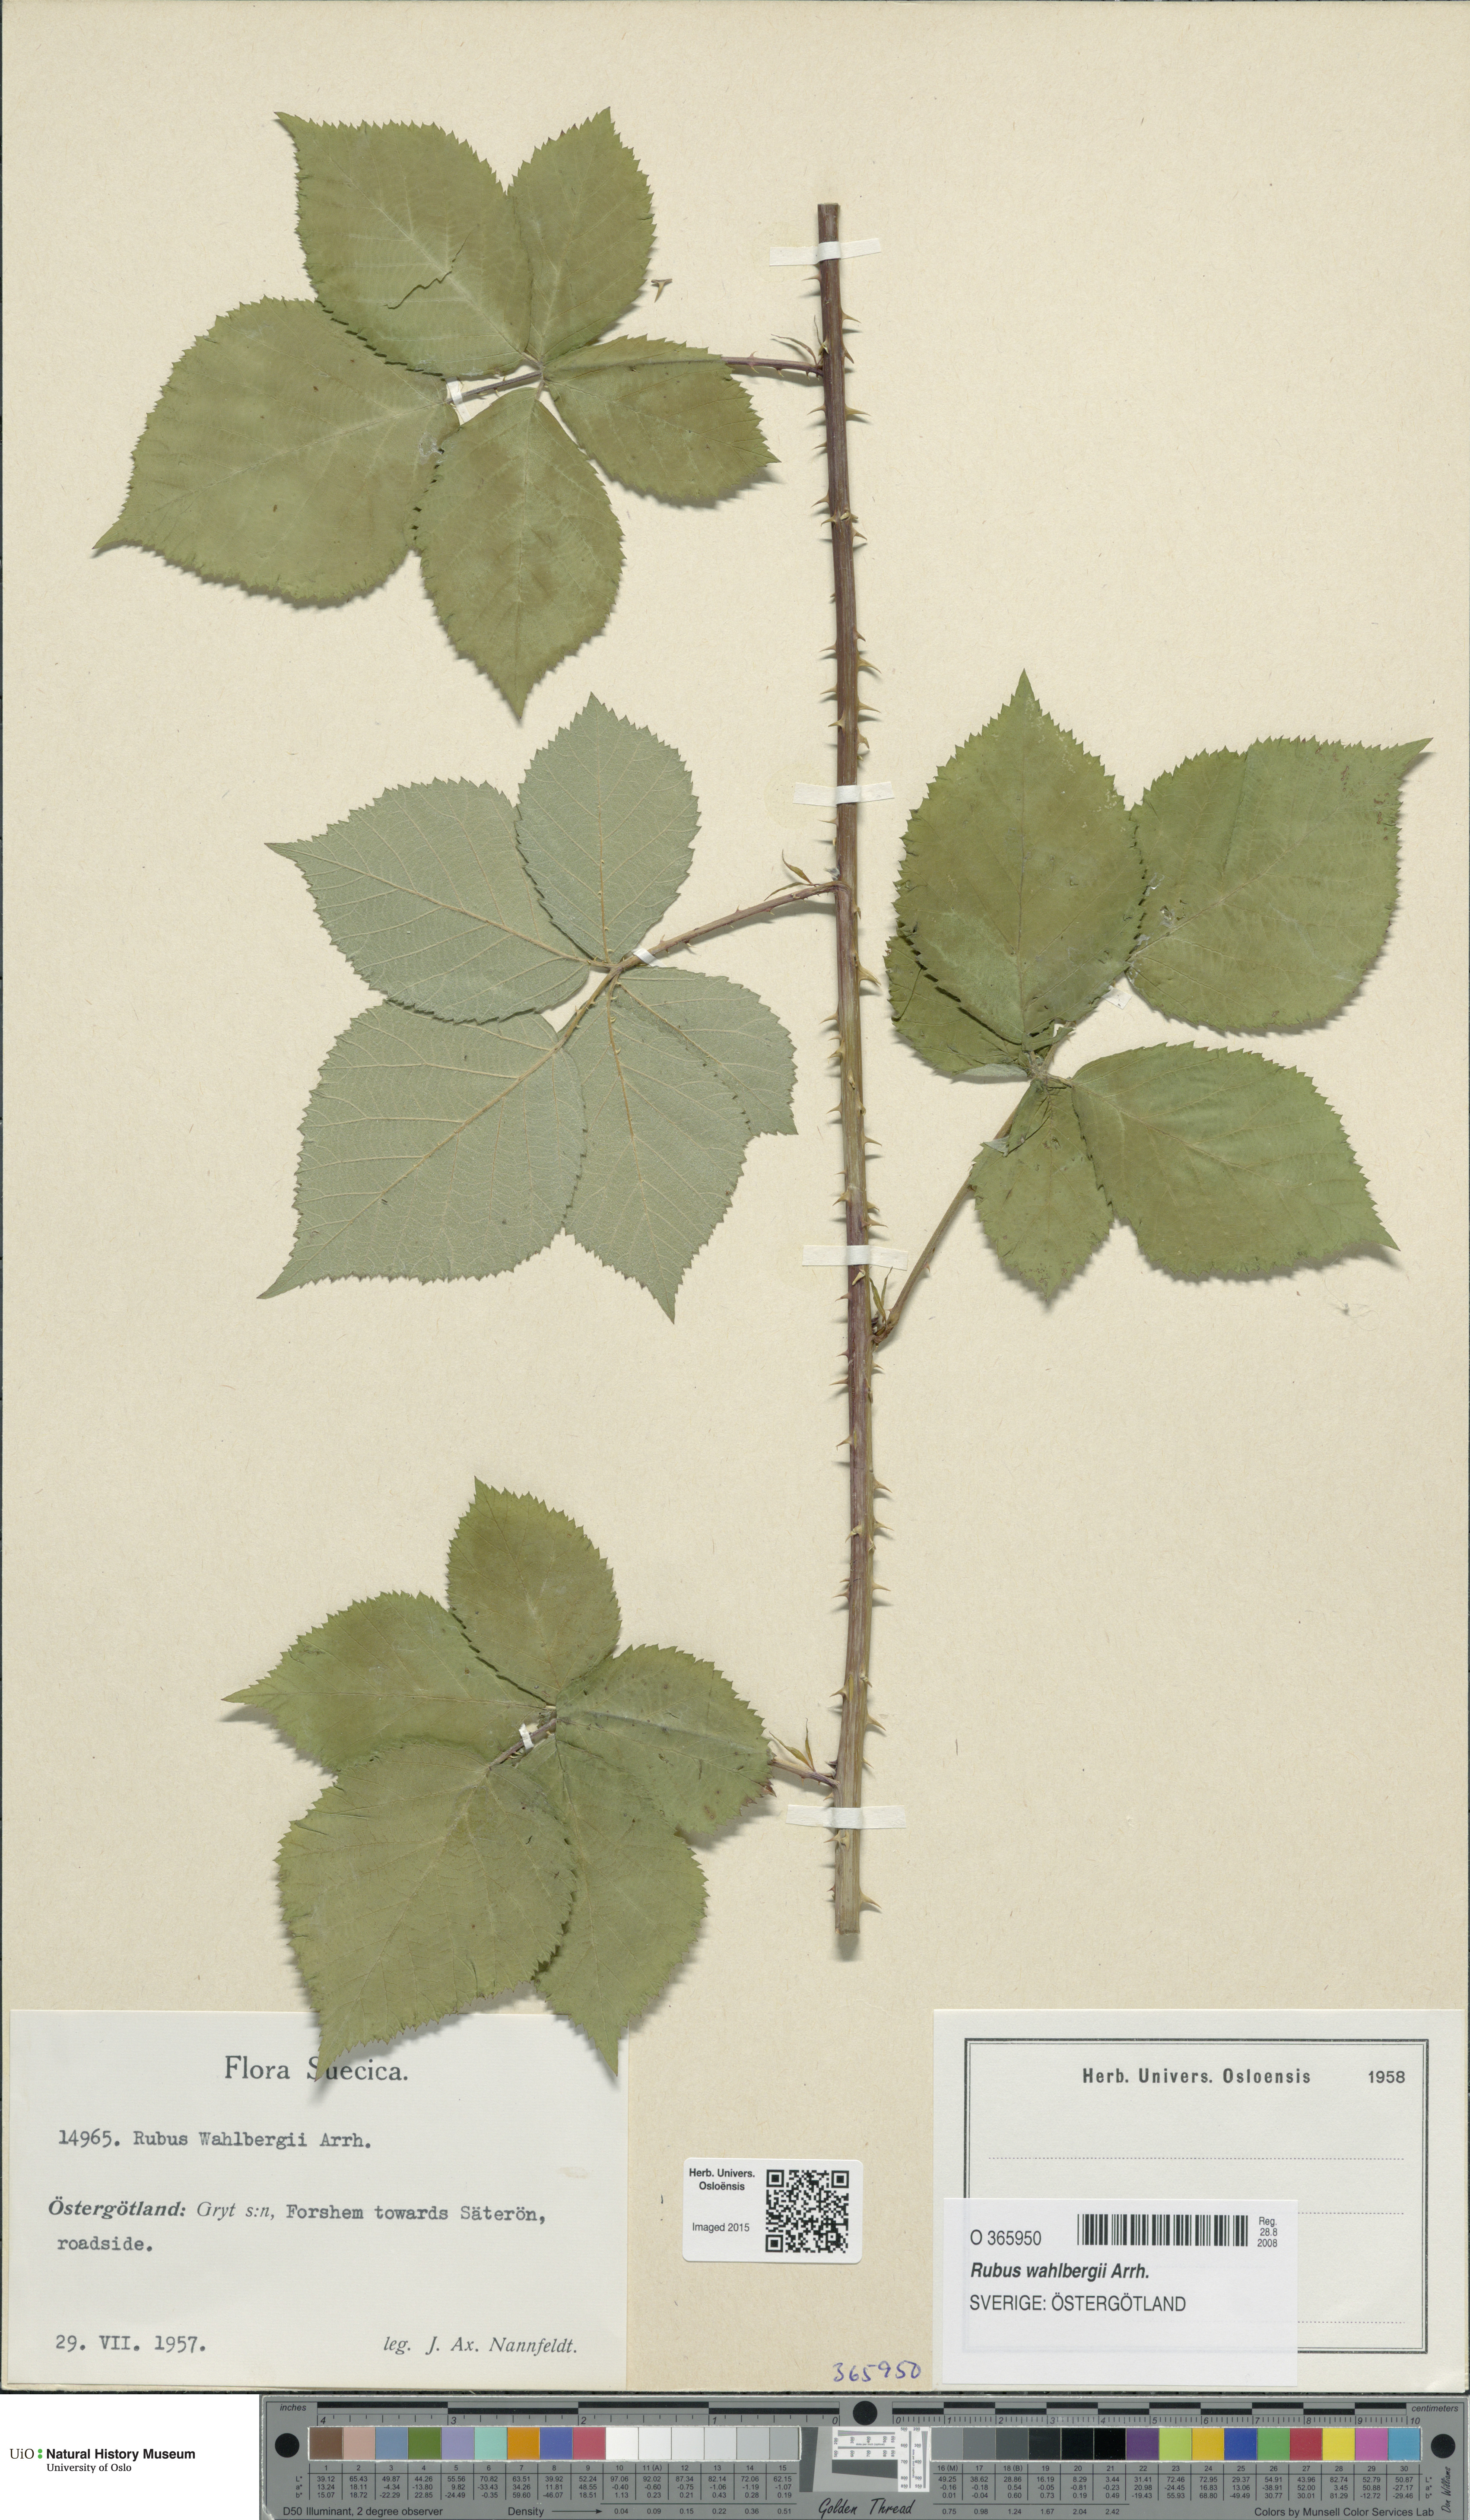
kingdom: Plantae
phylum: Tracheophyta
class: Magnoliopsida
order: Rosales
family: Rosaceae
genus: Rubus
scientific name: Rubus wahlbergii
